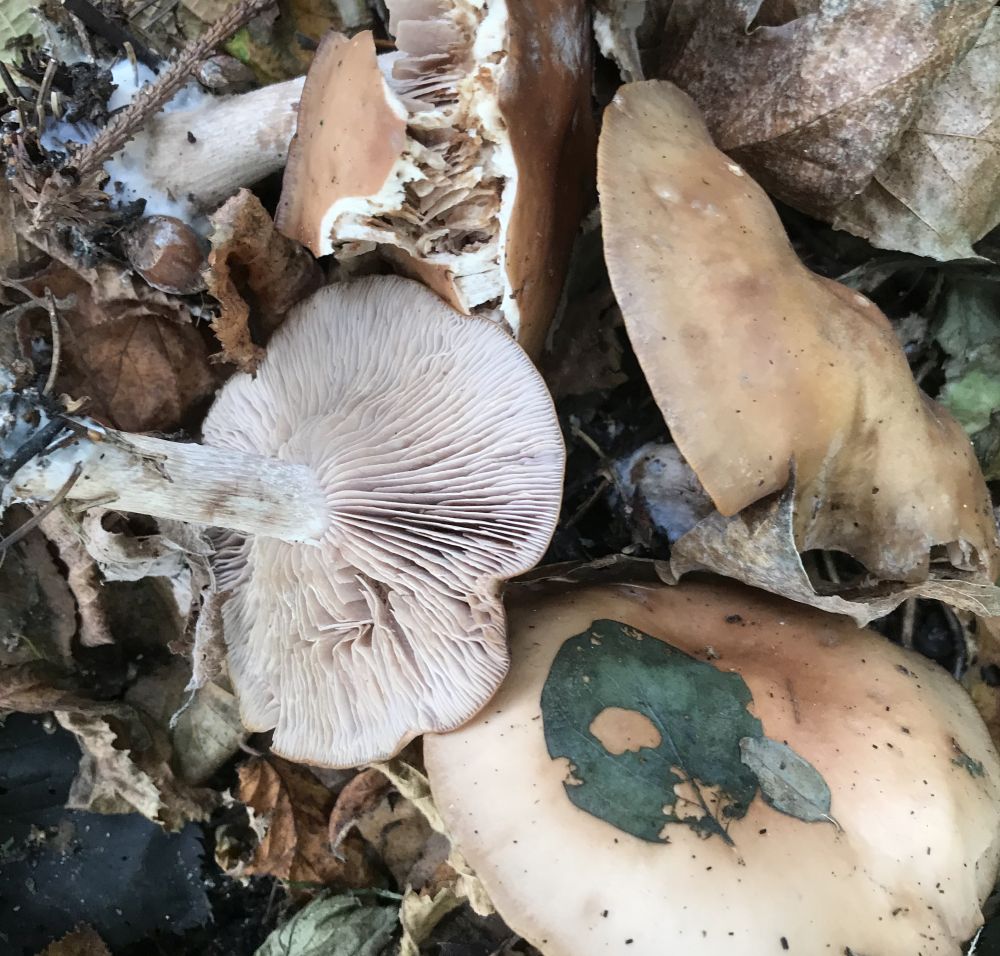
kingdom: Fungi
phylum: Basidiomycota
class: Agaricomycetes
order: Agaricales
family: Tricholomataceae
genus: Lepista
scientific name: Lepista nuda
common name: violet hekseringshat
